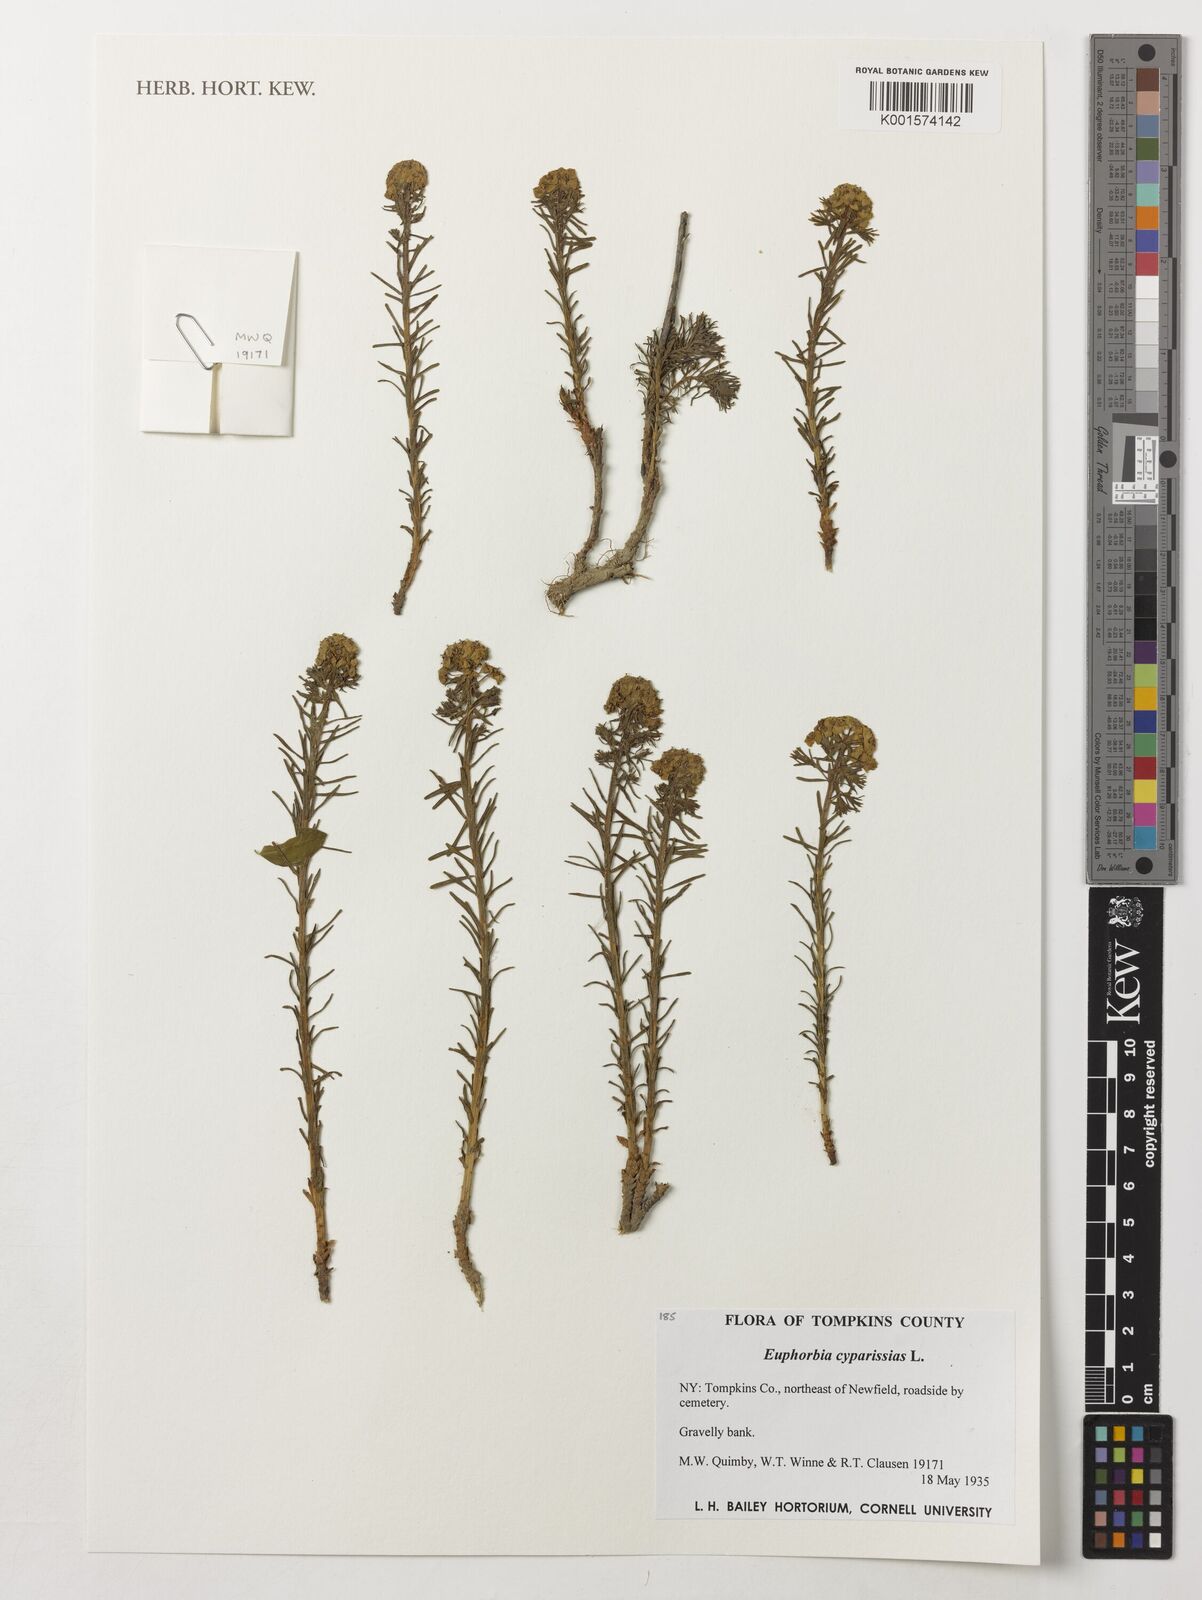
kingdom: Plantae
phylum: Tracheophyta
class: Magnoliopsida
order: Malpighiales
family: Euphorbiaceae
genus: Euphorbia
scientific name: Euphorbia cyparissias
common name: Cypress spurge
